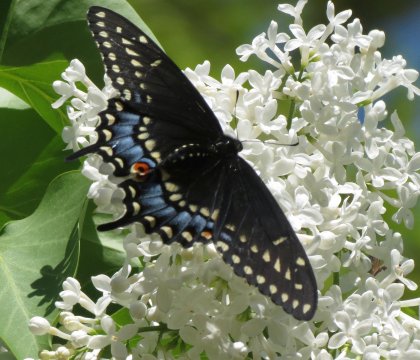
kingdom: Animalia
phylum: Arthropoda
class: Insecta
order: Lepidoptera
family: Papilionidae
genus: Papilio
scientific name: Papilio polyxenes
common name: Black Swallowtail
